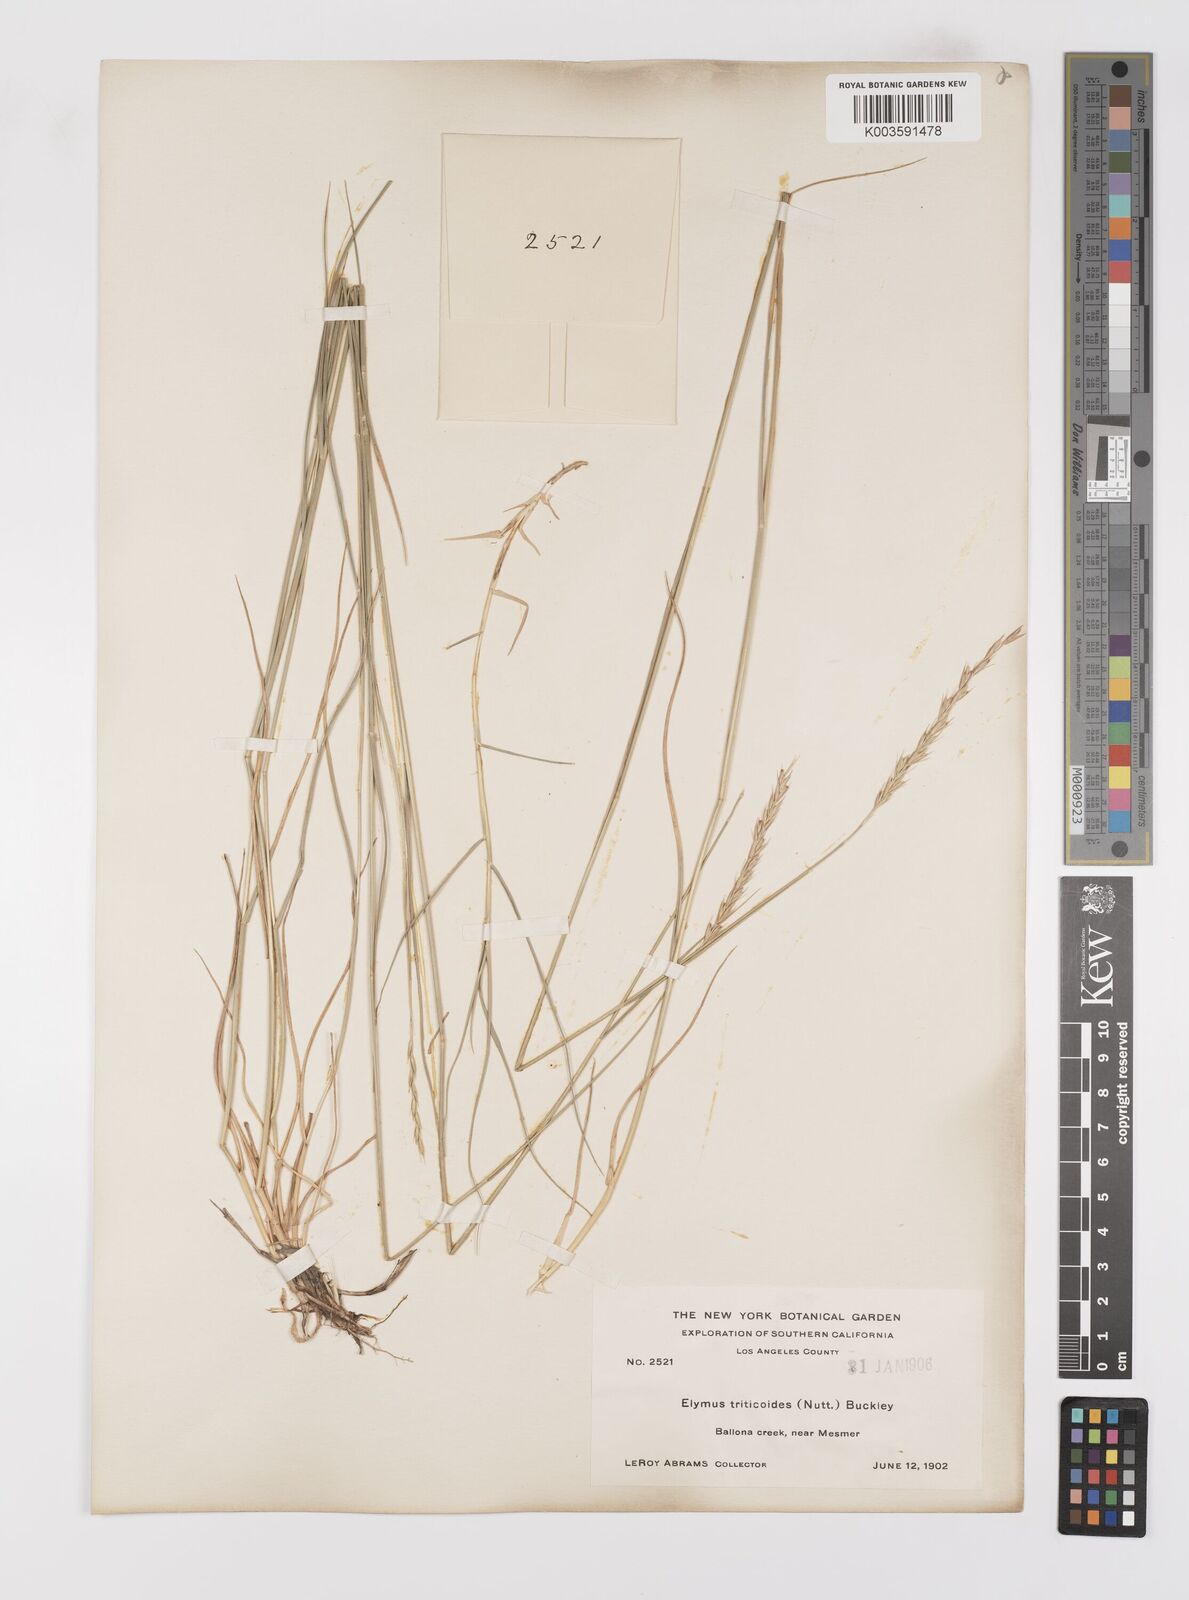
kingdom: Plantae
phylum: Tracheophyta
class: Liliopsida
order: Poales
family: Poaceae
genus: Leymus
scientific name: Leymus triticoides
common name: Beardless wild rye
